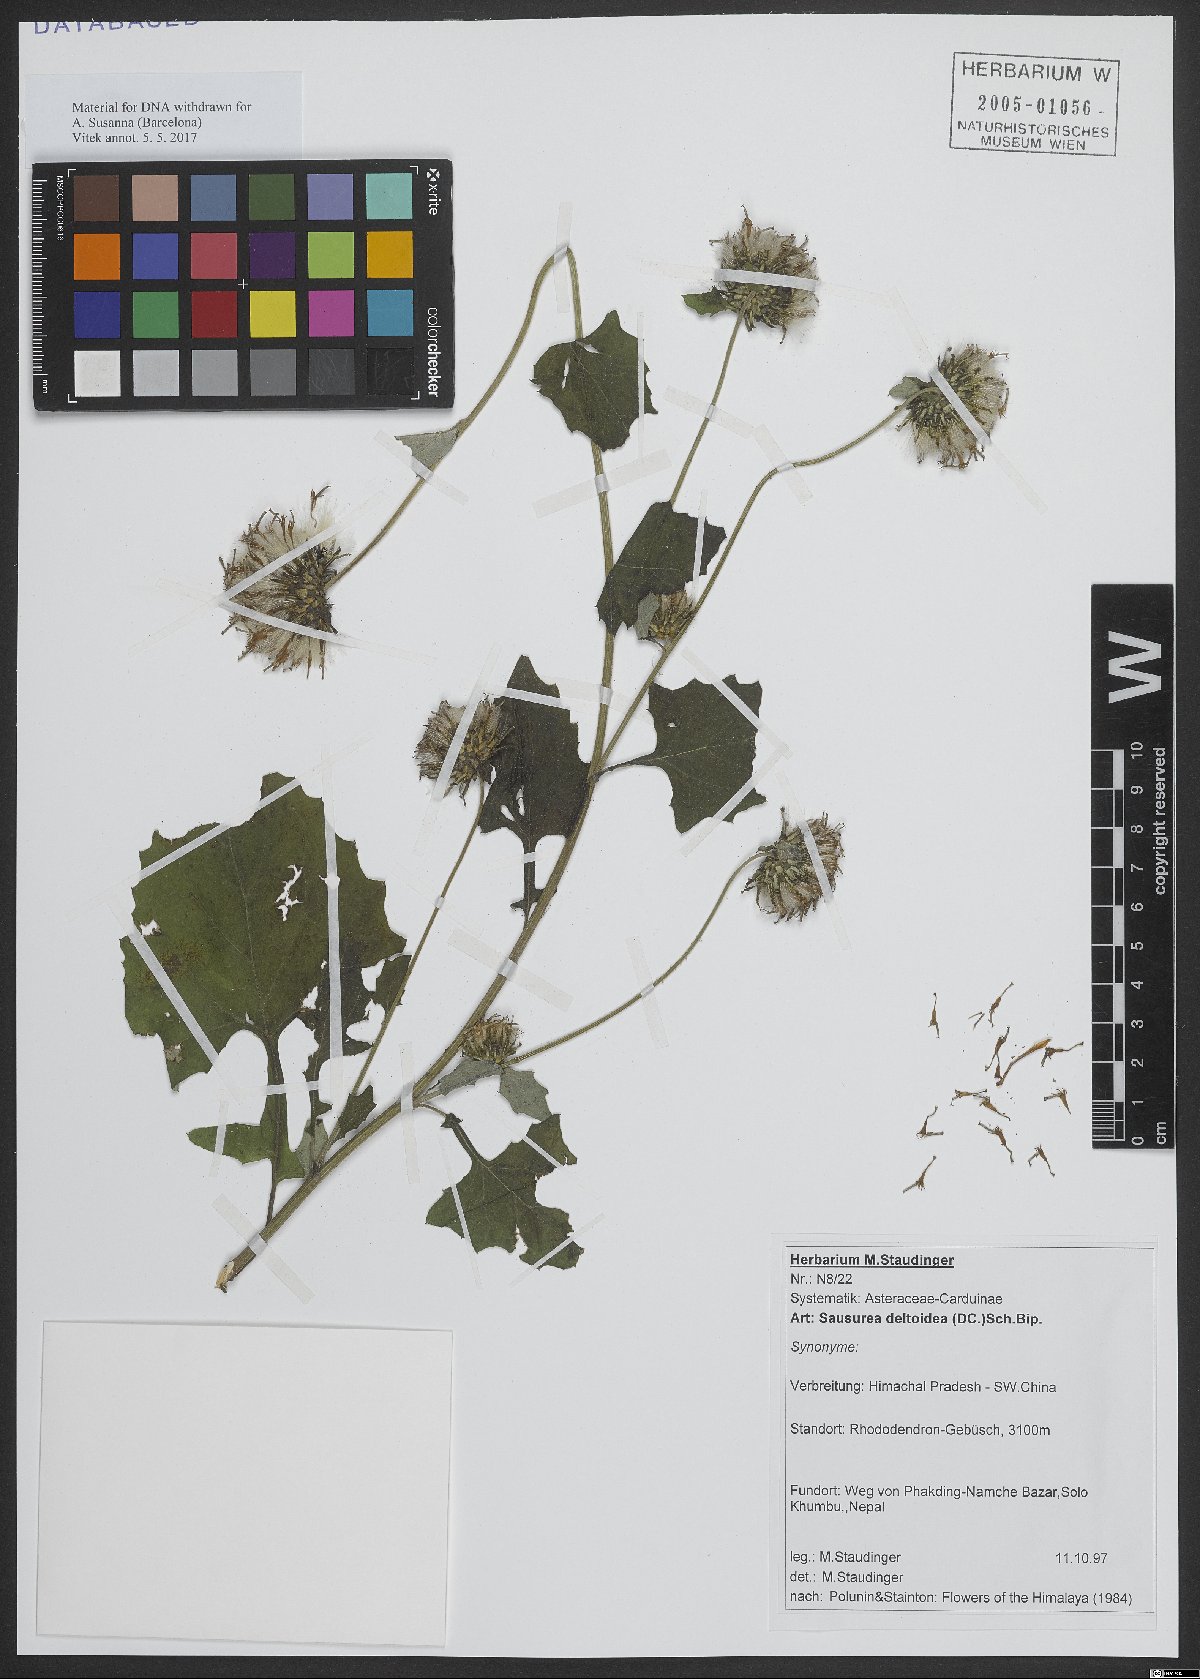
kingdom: Plantae
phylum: Tracheophyta
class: Magnoliopsida
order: Asterales
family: Asteraceae
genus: Jurinea
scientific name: Jurinea deltoidea
